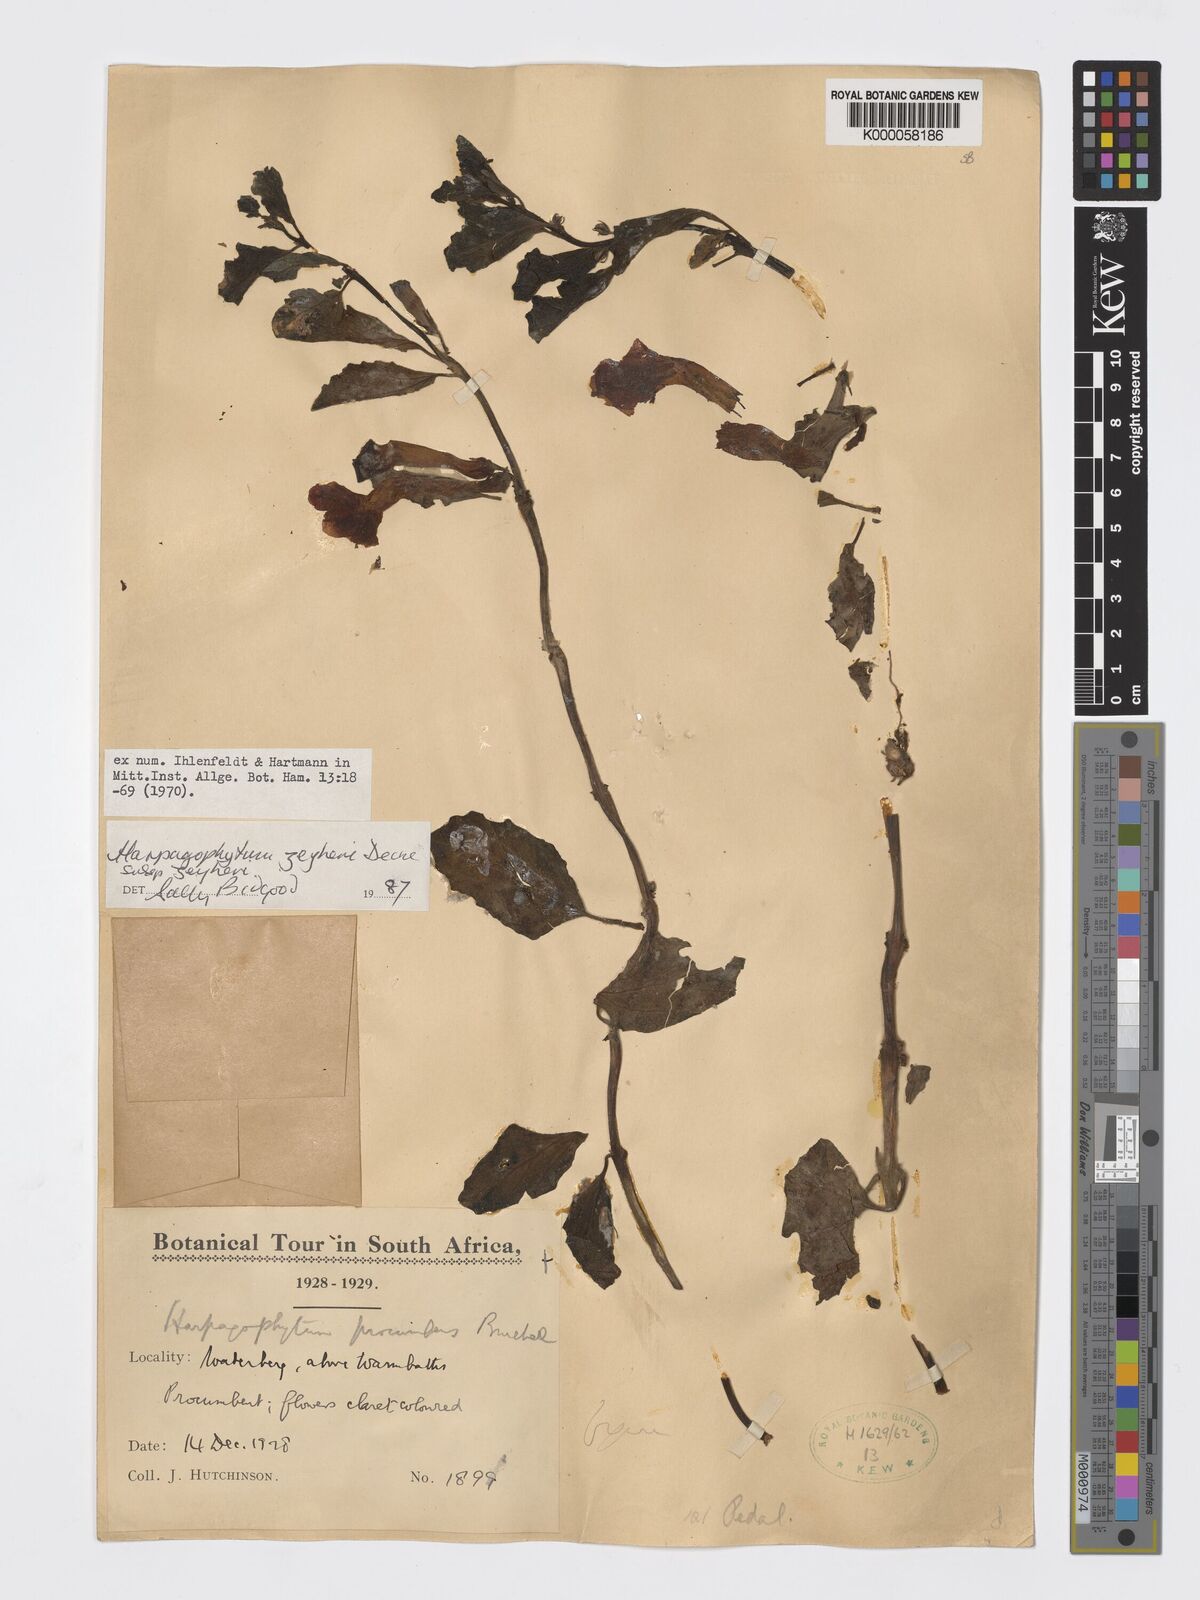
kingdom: Plantae
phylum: Tracheophyta
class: Magnoliopsida
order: Lamiales
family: Pedaliaceae
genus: Harpagophytum
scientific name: Harpagophytum zeyheri
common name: Grappleplant
